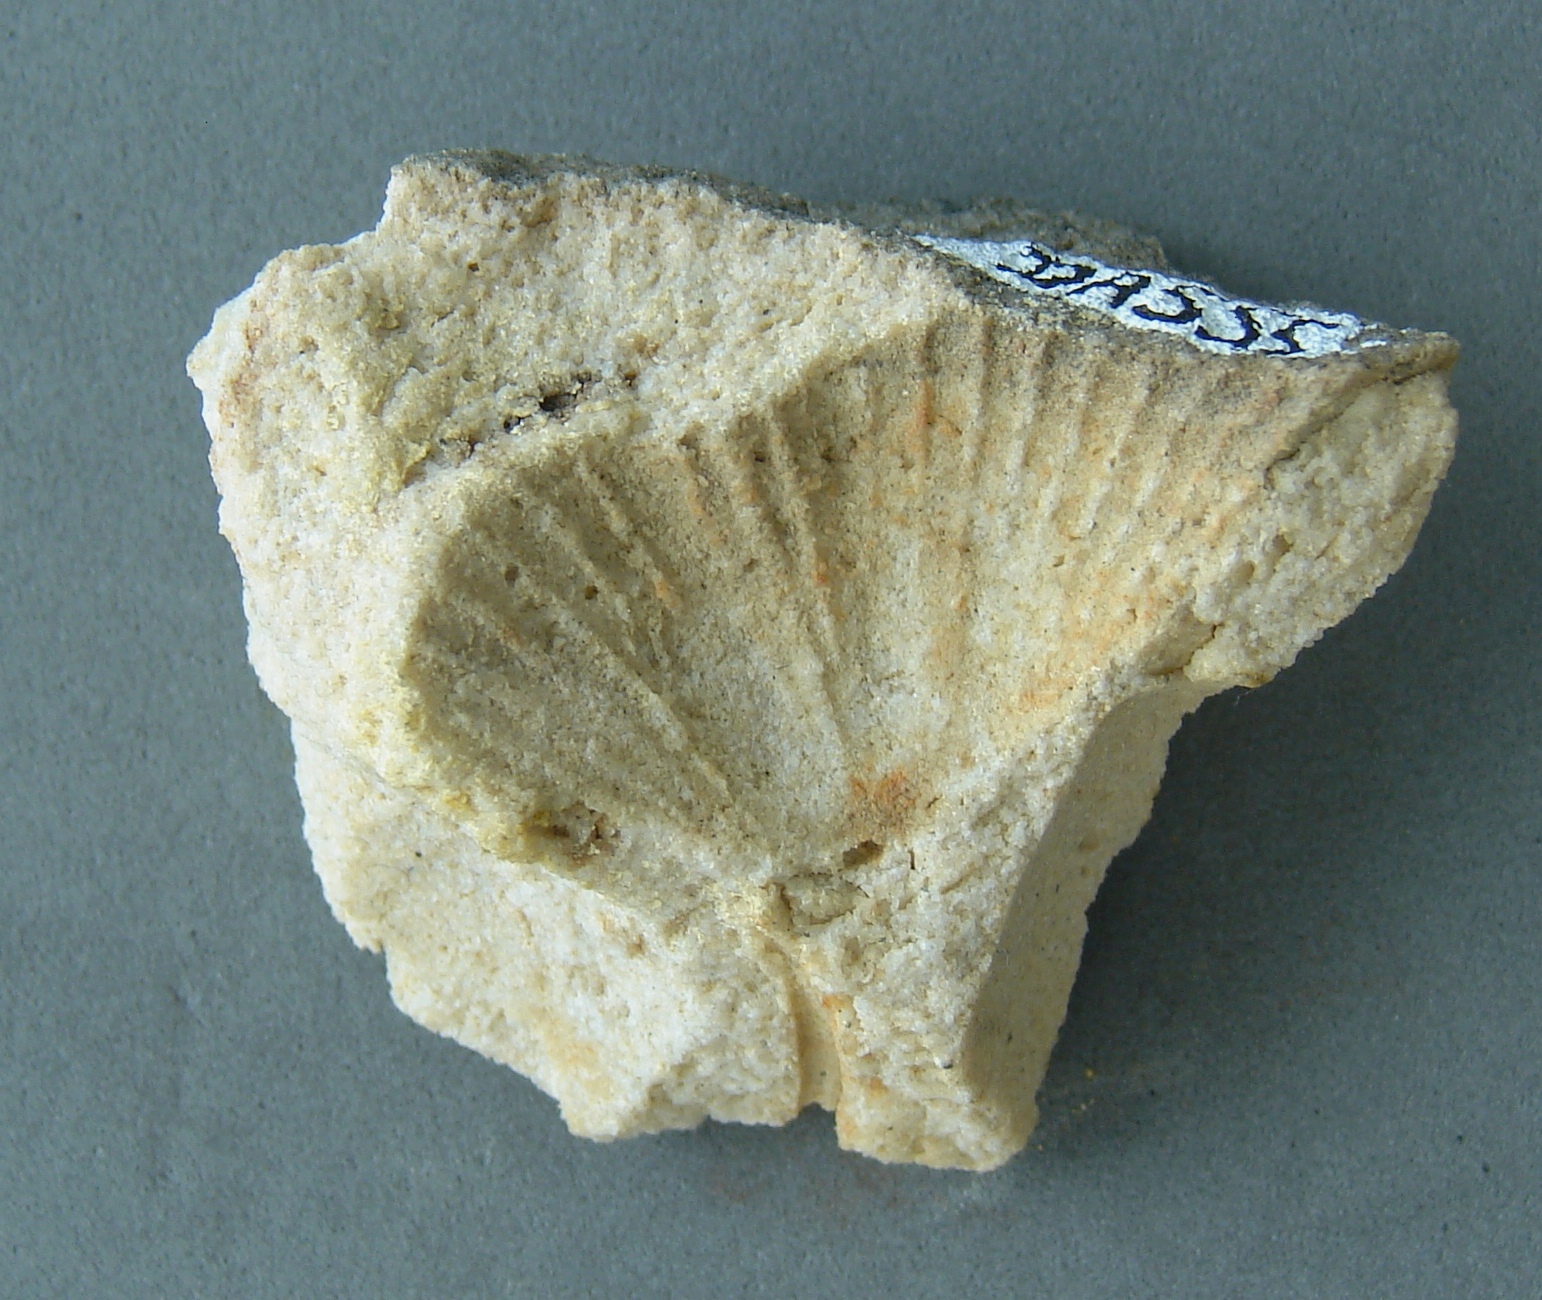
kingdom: Animalia
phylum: Brachiopoda
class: Rhynchonellata
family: Spiriferidae
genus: Spirifer
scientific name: Spirifer
